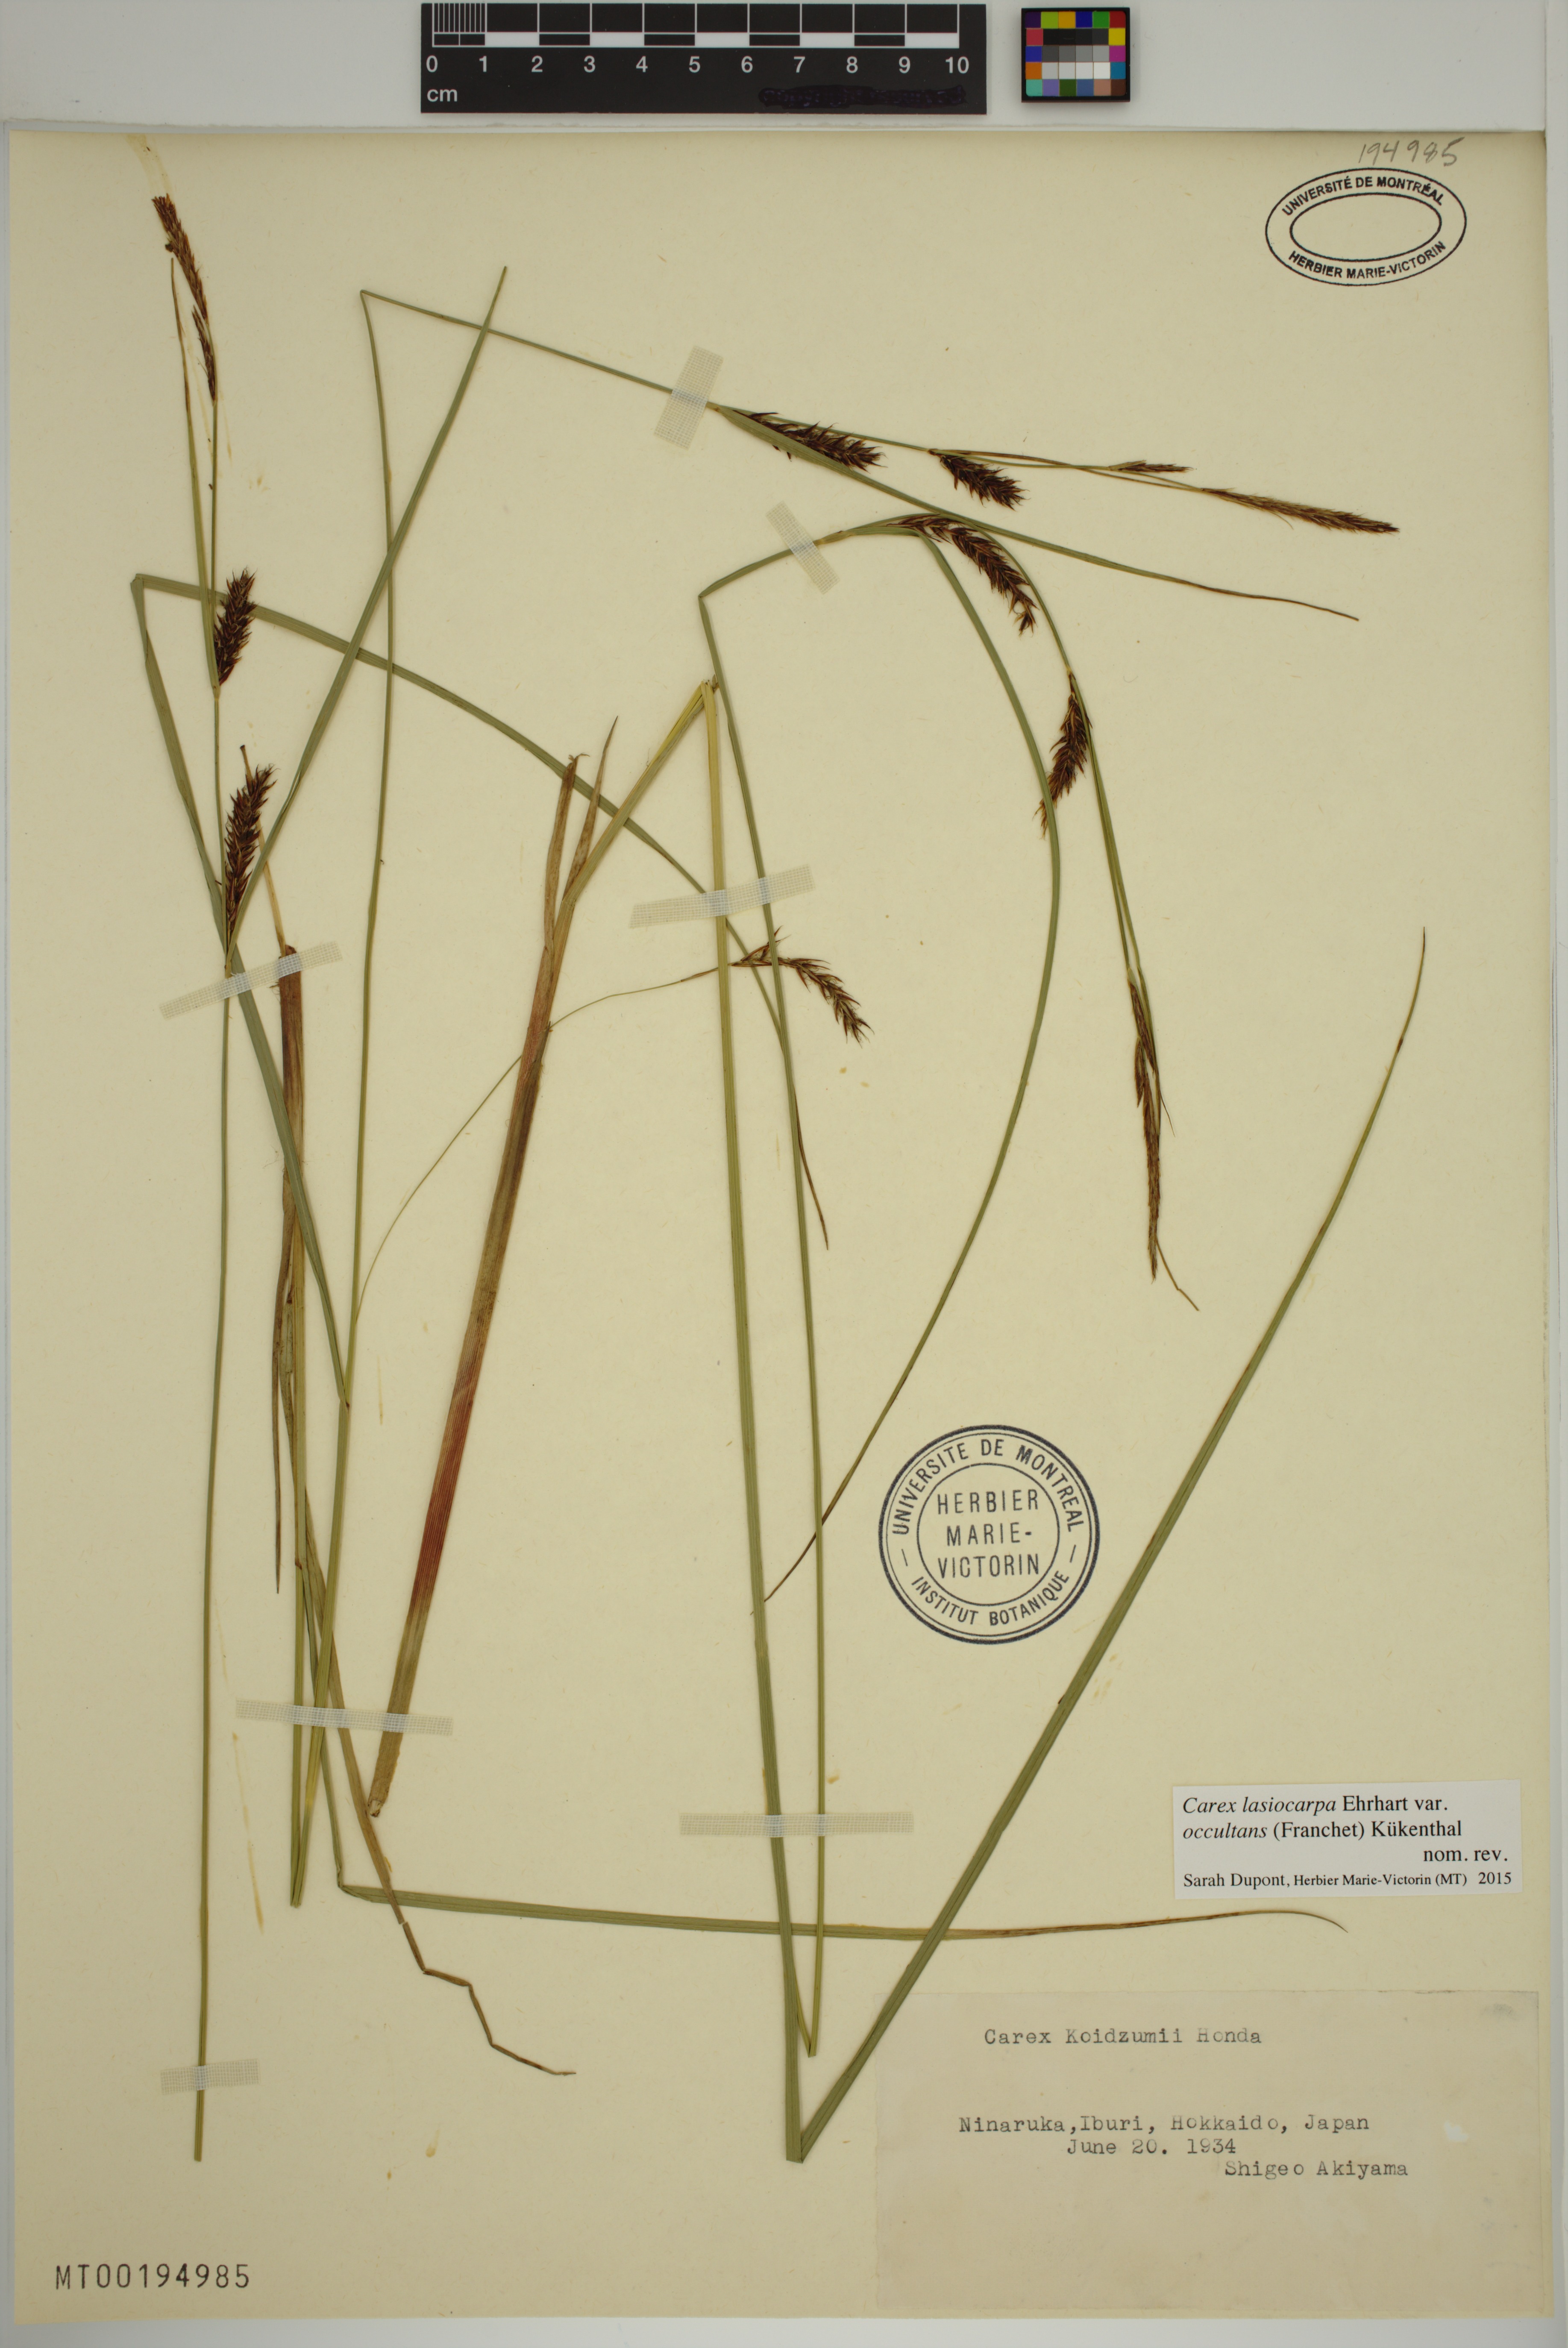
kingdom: Plantae
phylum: Tracheophyta
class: Liliopsida
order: Poales
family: Cyperaceae
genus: Carex
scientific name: Carex lasiocarpa
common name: Slender sedge
